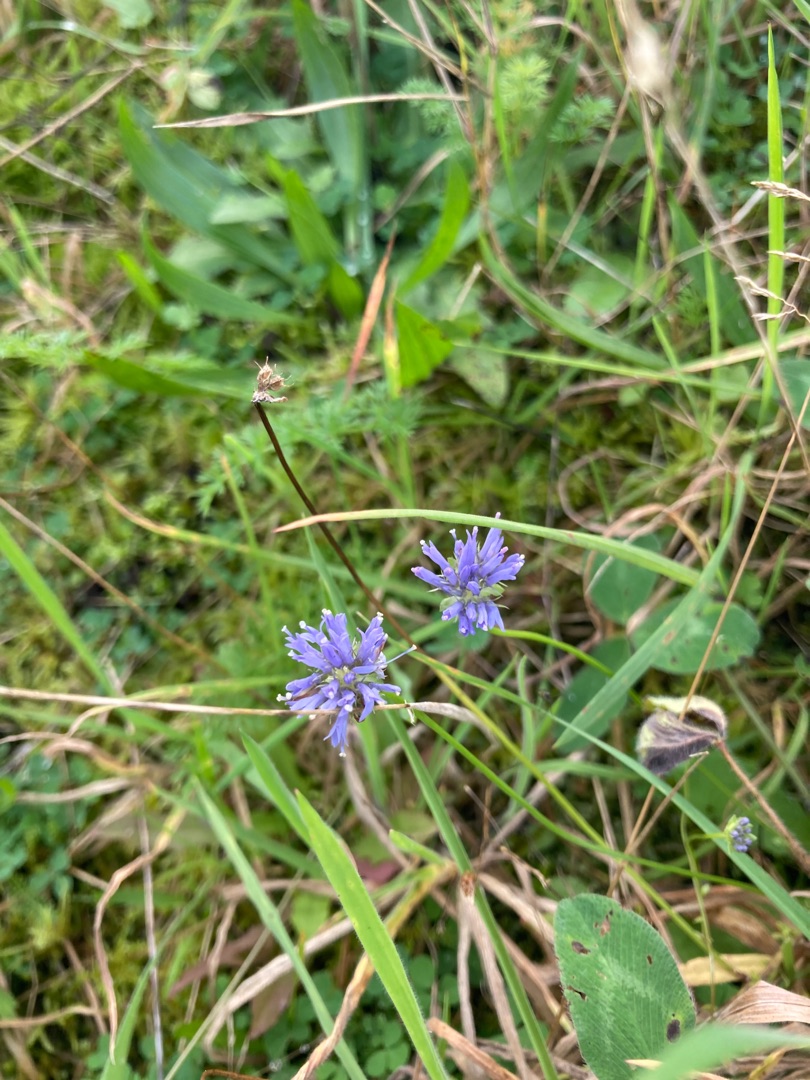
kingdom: Plantae
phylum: Tracheophyta
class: Magnoliopsida
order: Asterales
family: Campanulaceae
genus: Jasione
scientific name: Jasione montana
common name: Blåmunke
